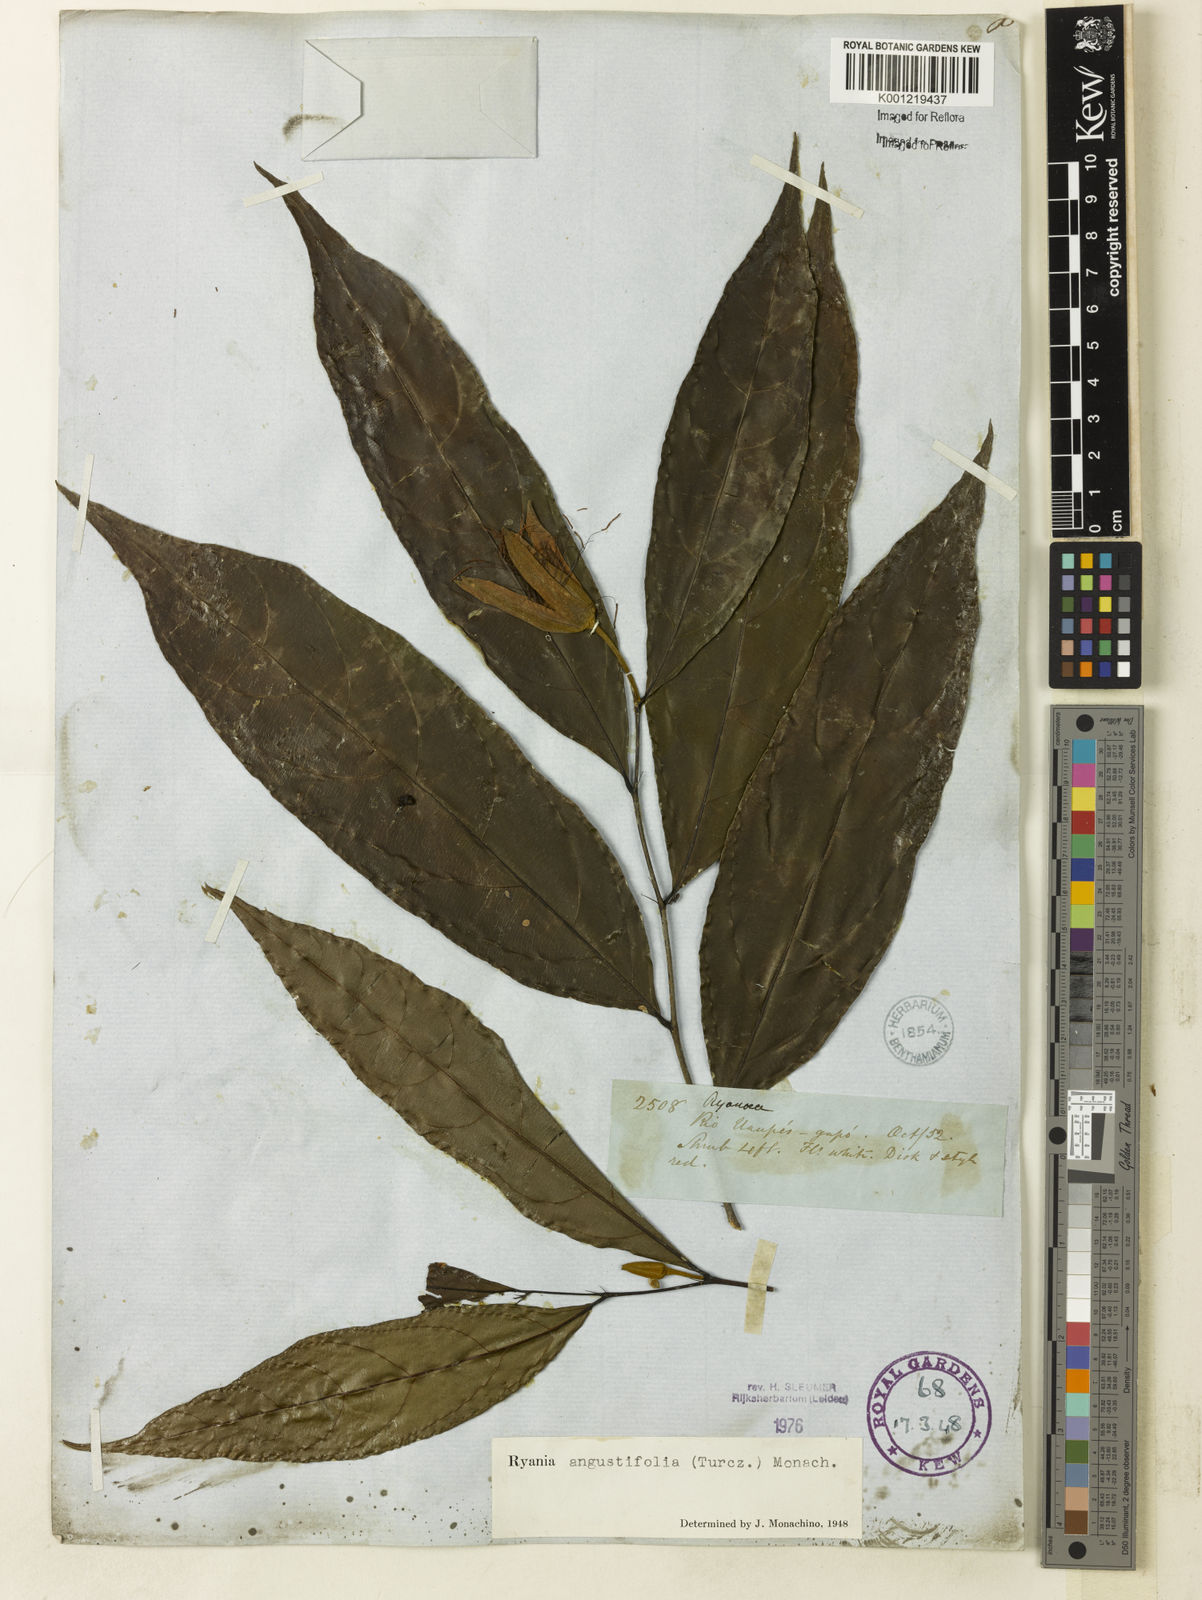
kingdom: Plantae
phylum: Tracheophyta
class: Magnoliopsida
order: Malpighiales
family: Salicaceae
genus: Ryania
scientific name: Ryania angustifolia
